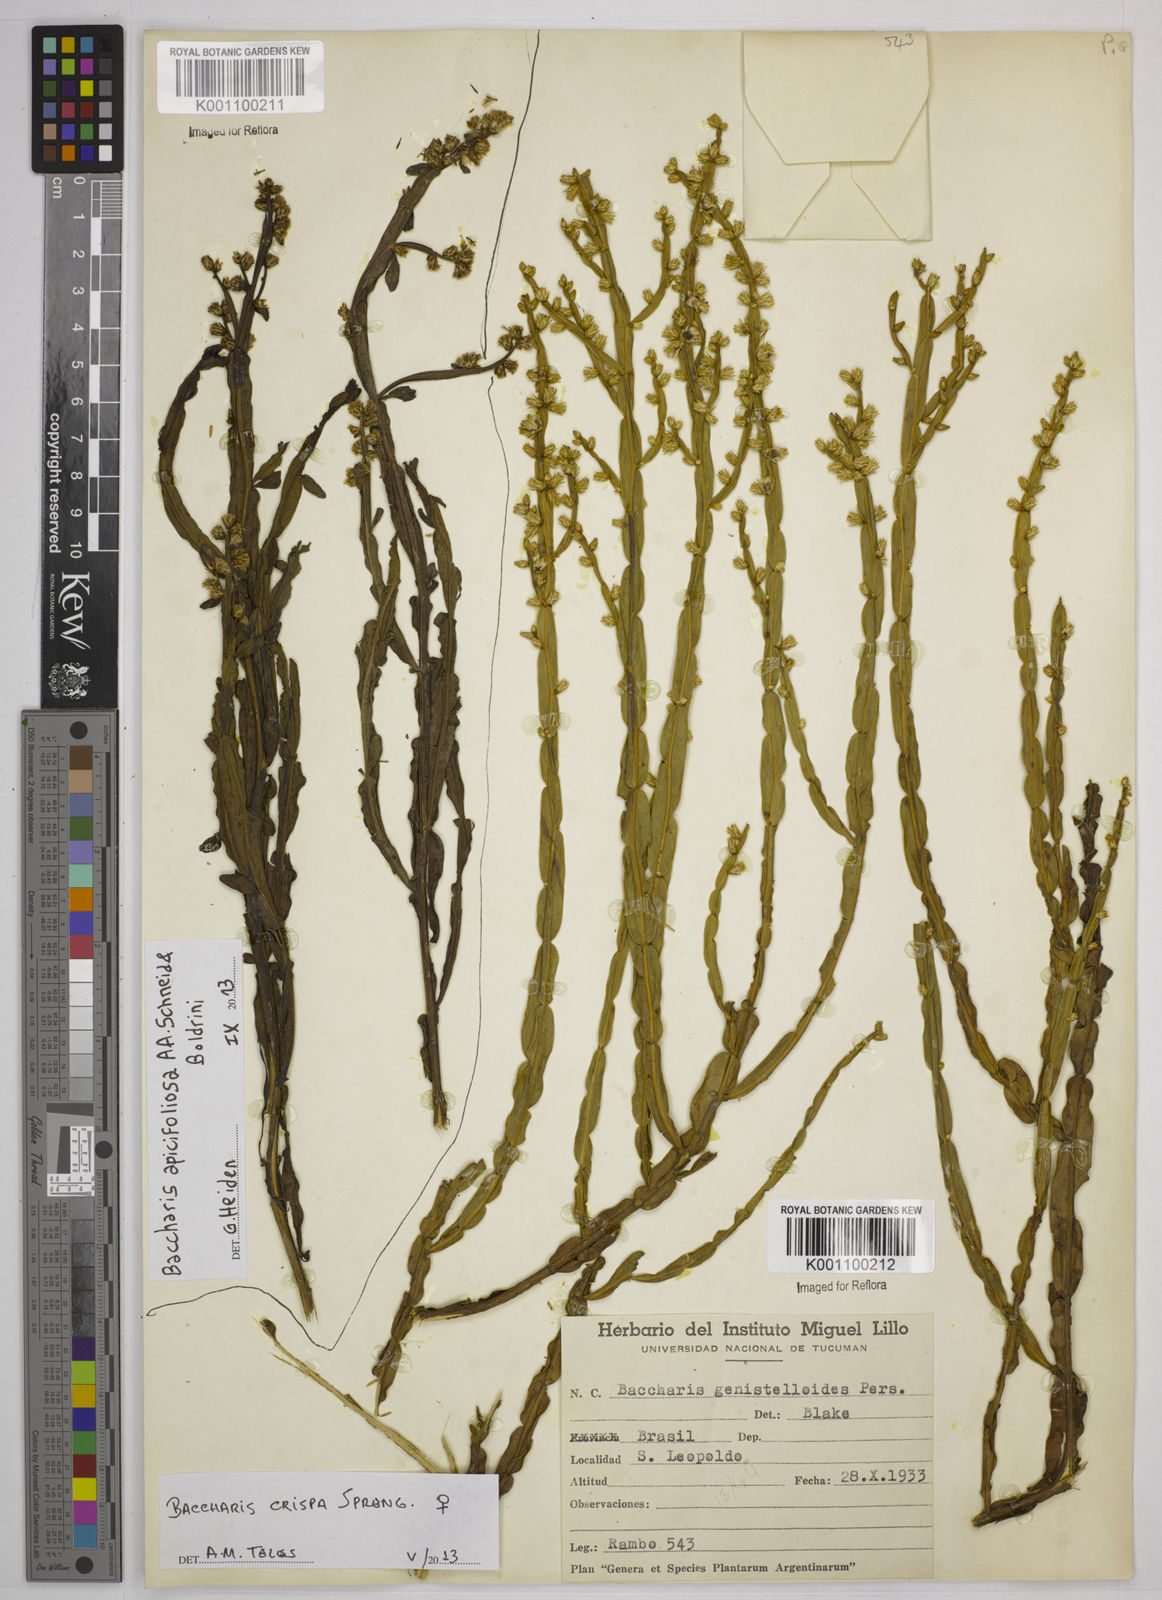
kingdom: Plantae
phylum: Tracheophyta
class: Magnoliopsida
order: Asterales
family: Asteraceae
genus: Baccharis
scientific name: Baccharis crispa
